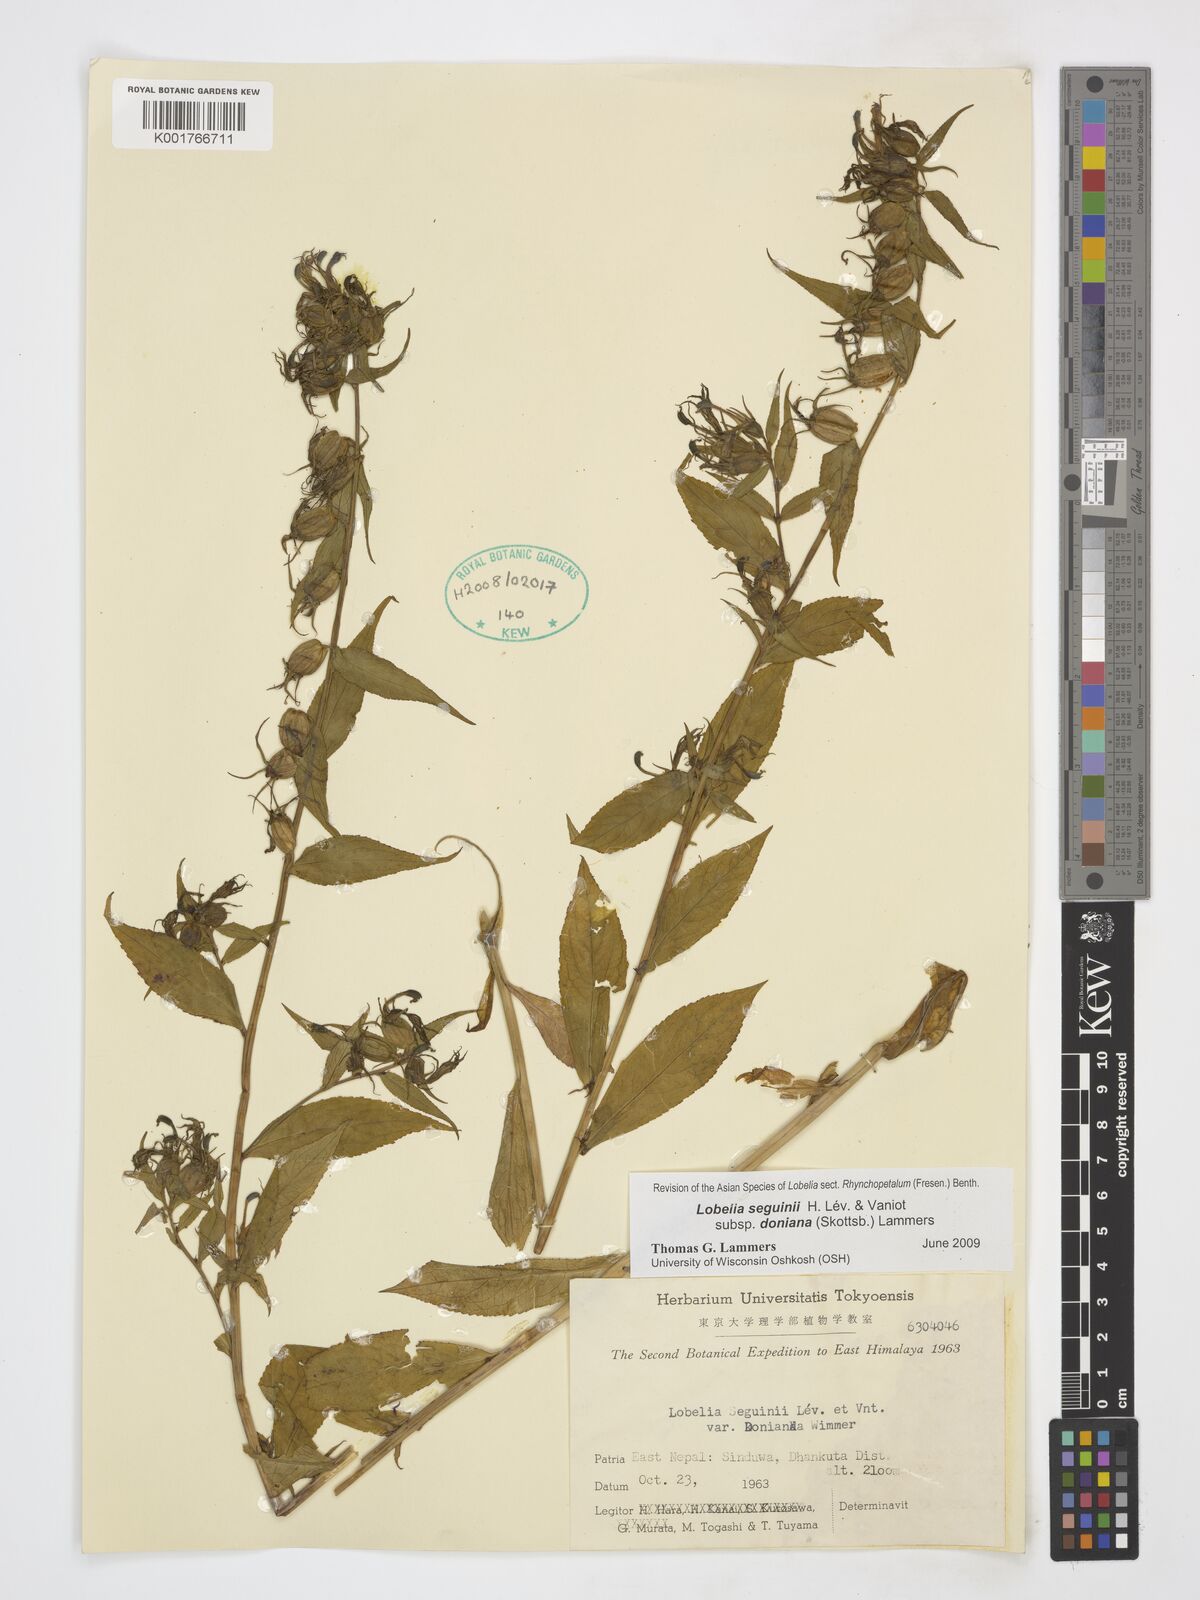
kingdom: Plantae
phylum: Tracheophyta
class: Magnoliopsida
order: Asterales
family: Campanulaceae
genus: Lobelia
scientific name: Lobelia seguinii
